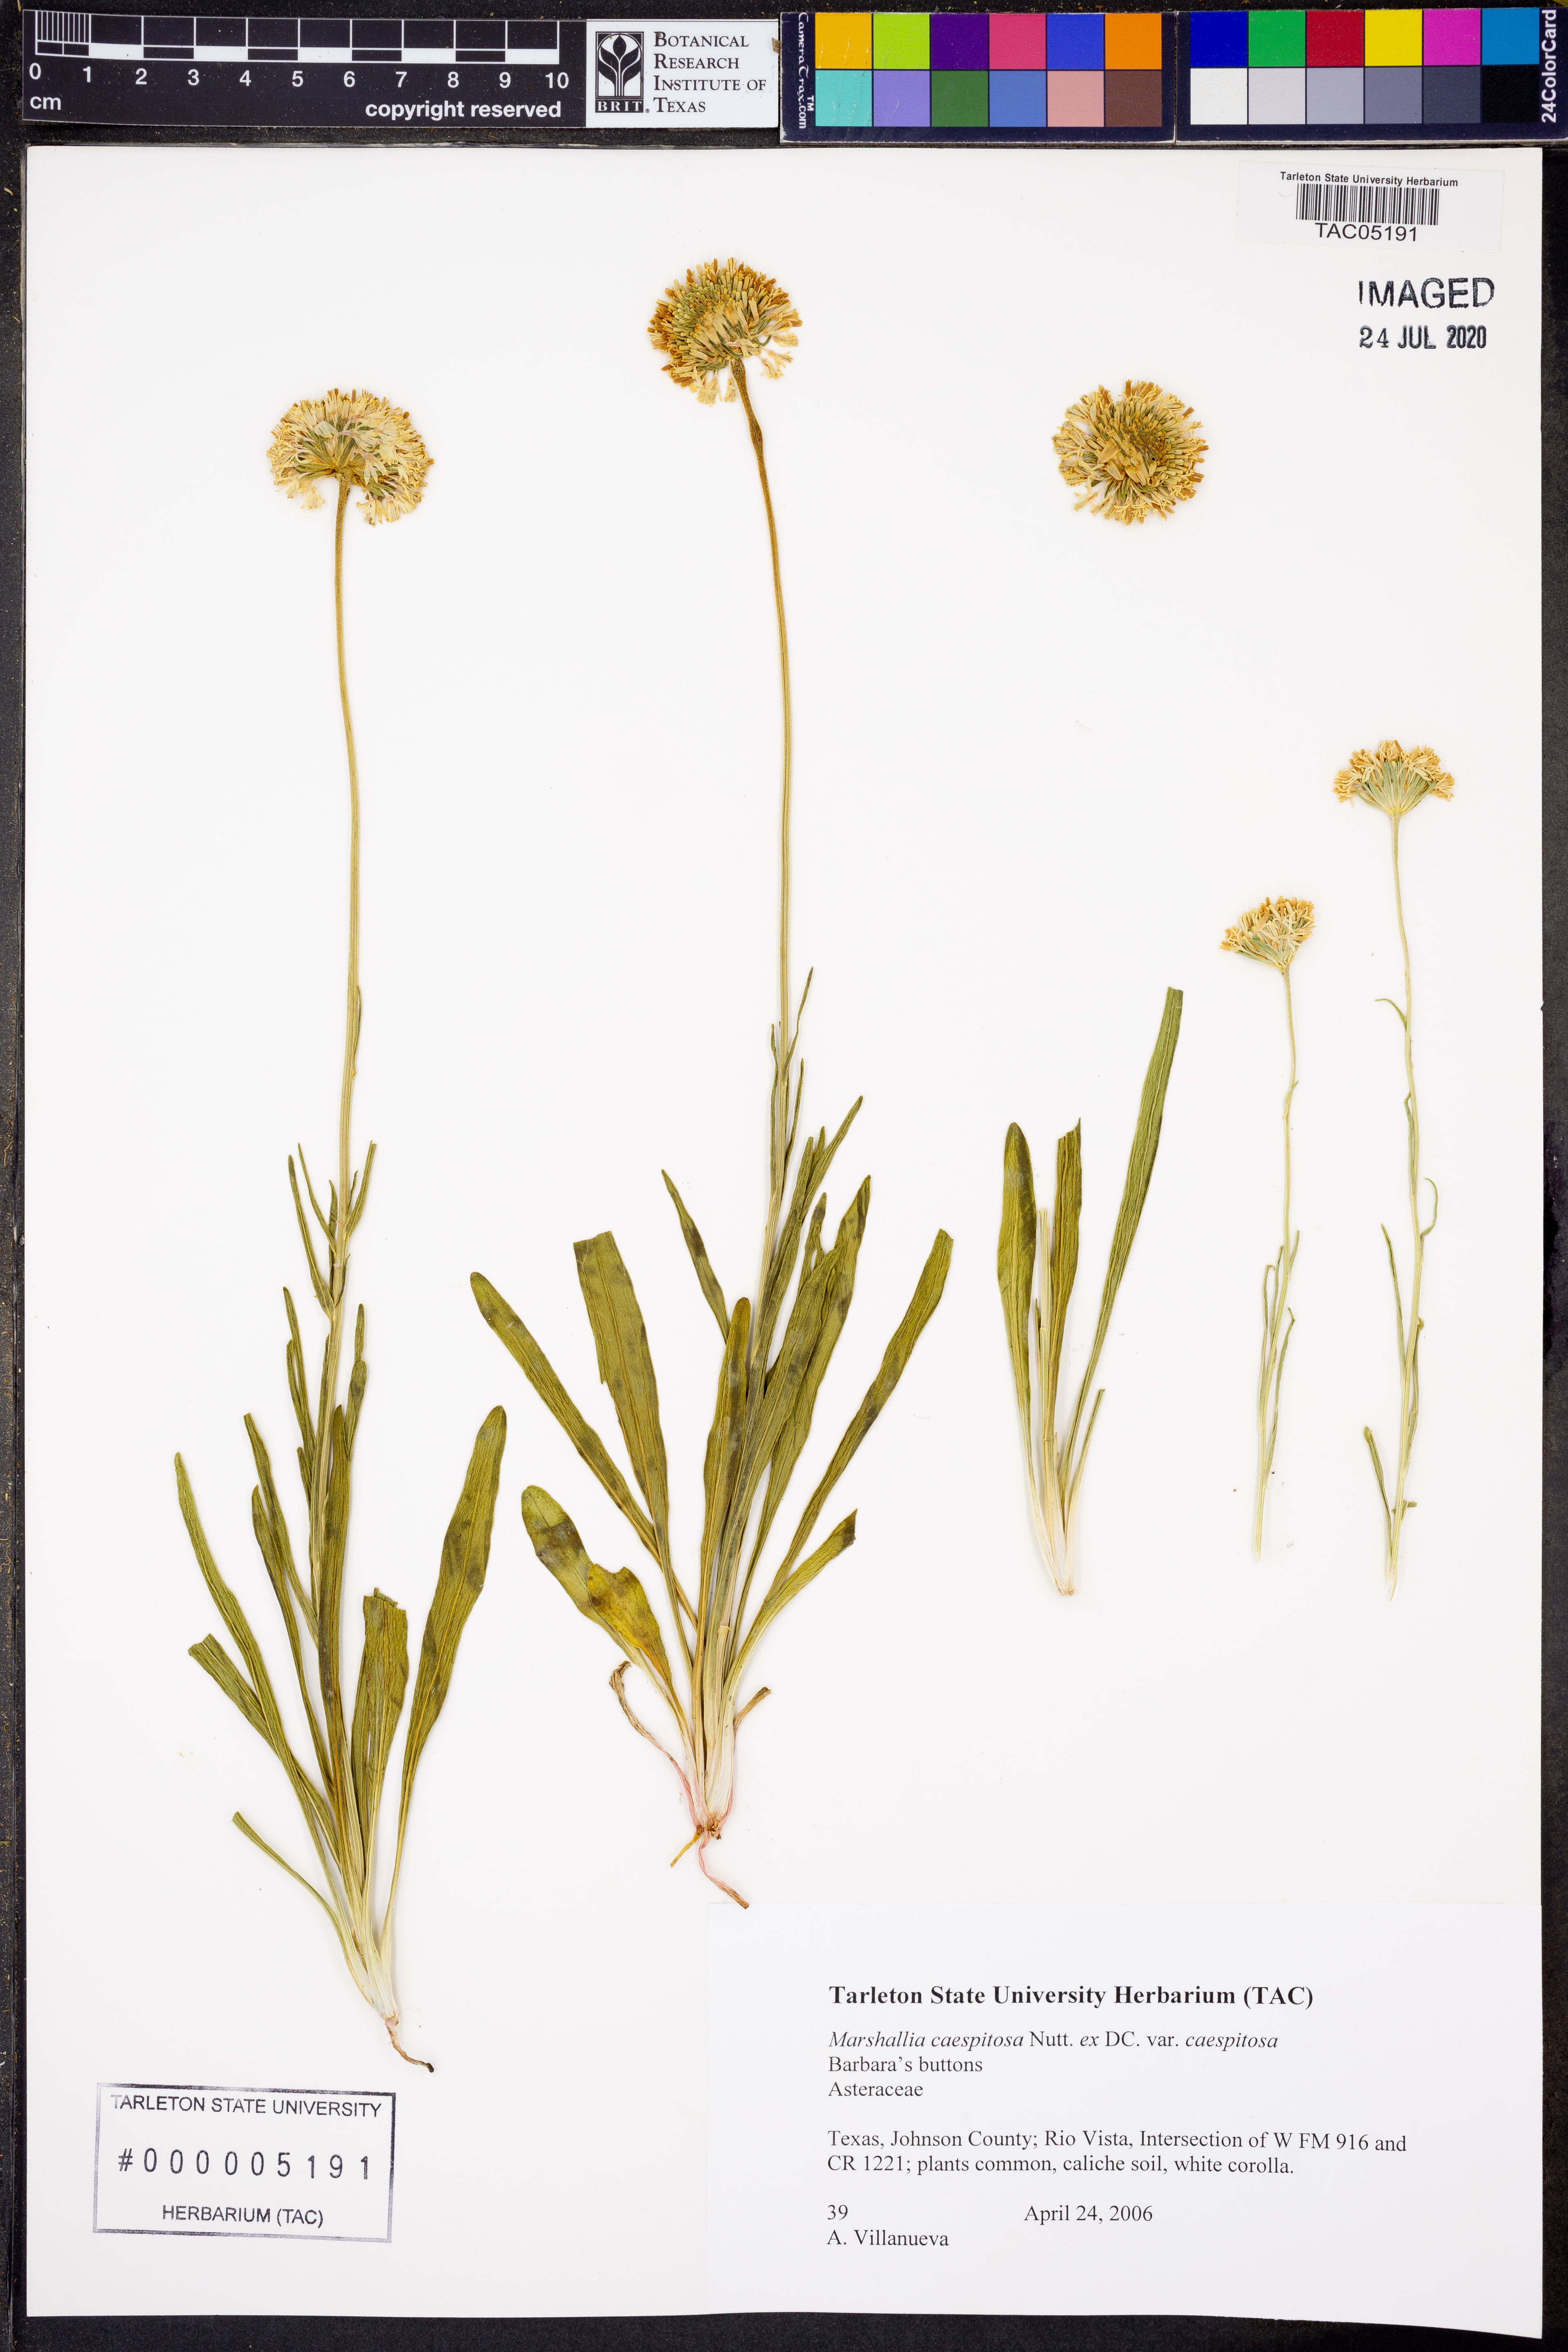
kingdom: Plantae
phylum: Tracheophyta
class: Magnoliopsida
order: Asterales
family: Asteraceae
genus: Marshallia
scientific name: Marshallia caespitosa
